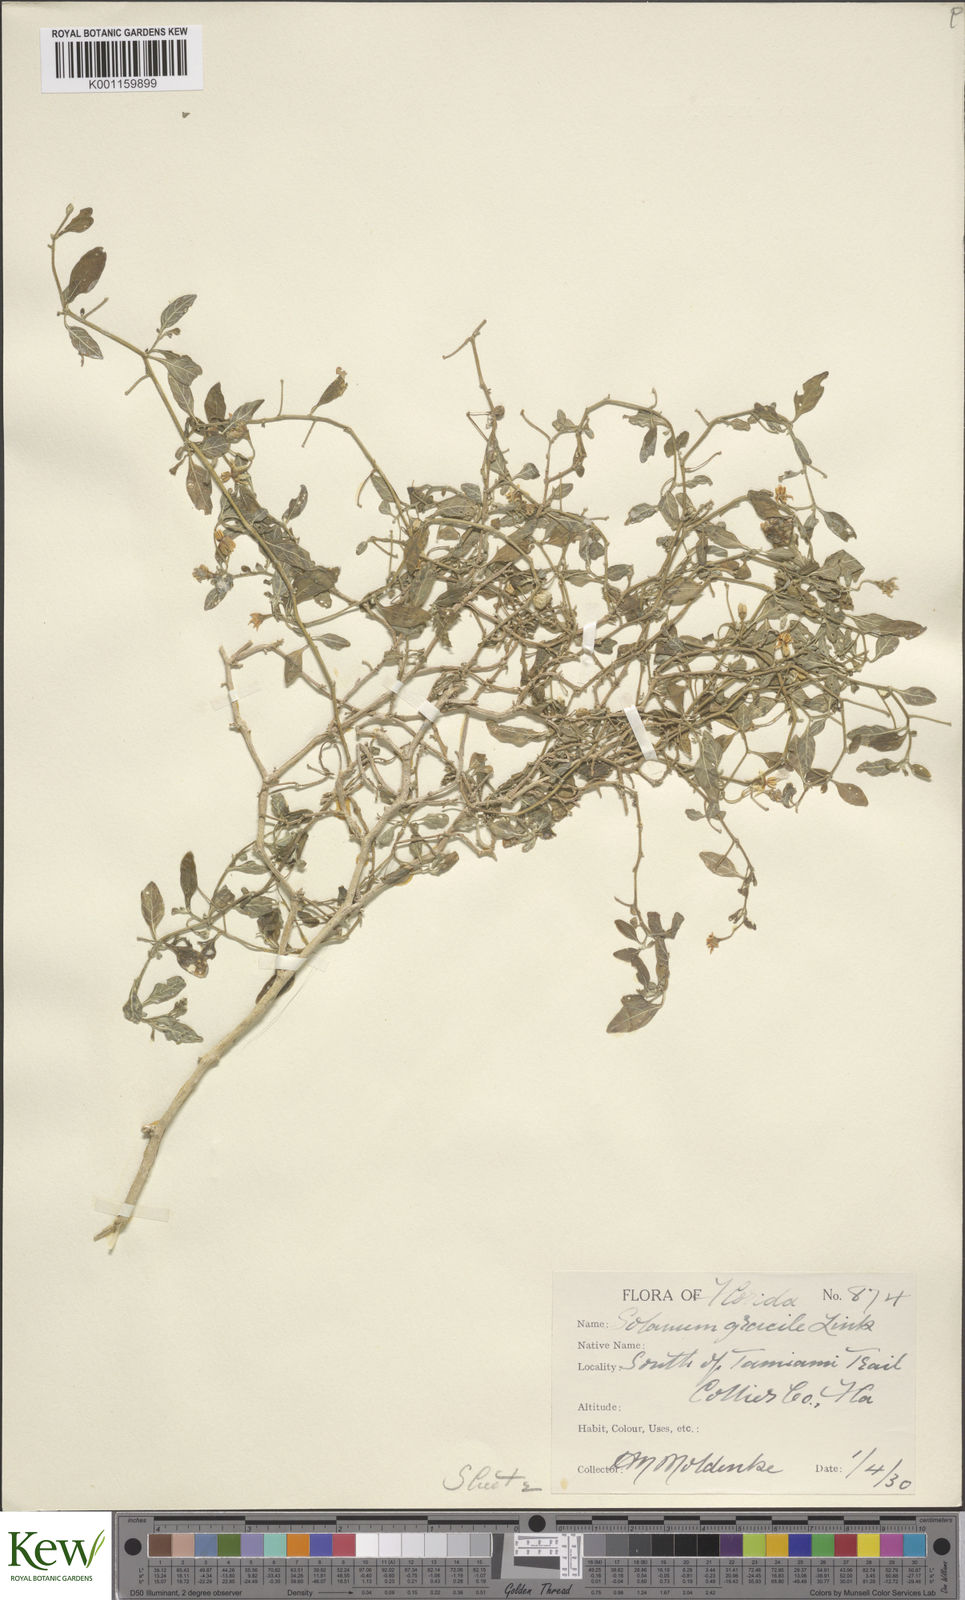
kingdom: Plantae
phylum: Tracheophyta
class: Magnoliopsida
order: Solanales
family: Solanaceae
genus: Solanum
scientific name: Solanum pseudogracile
